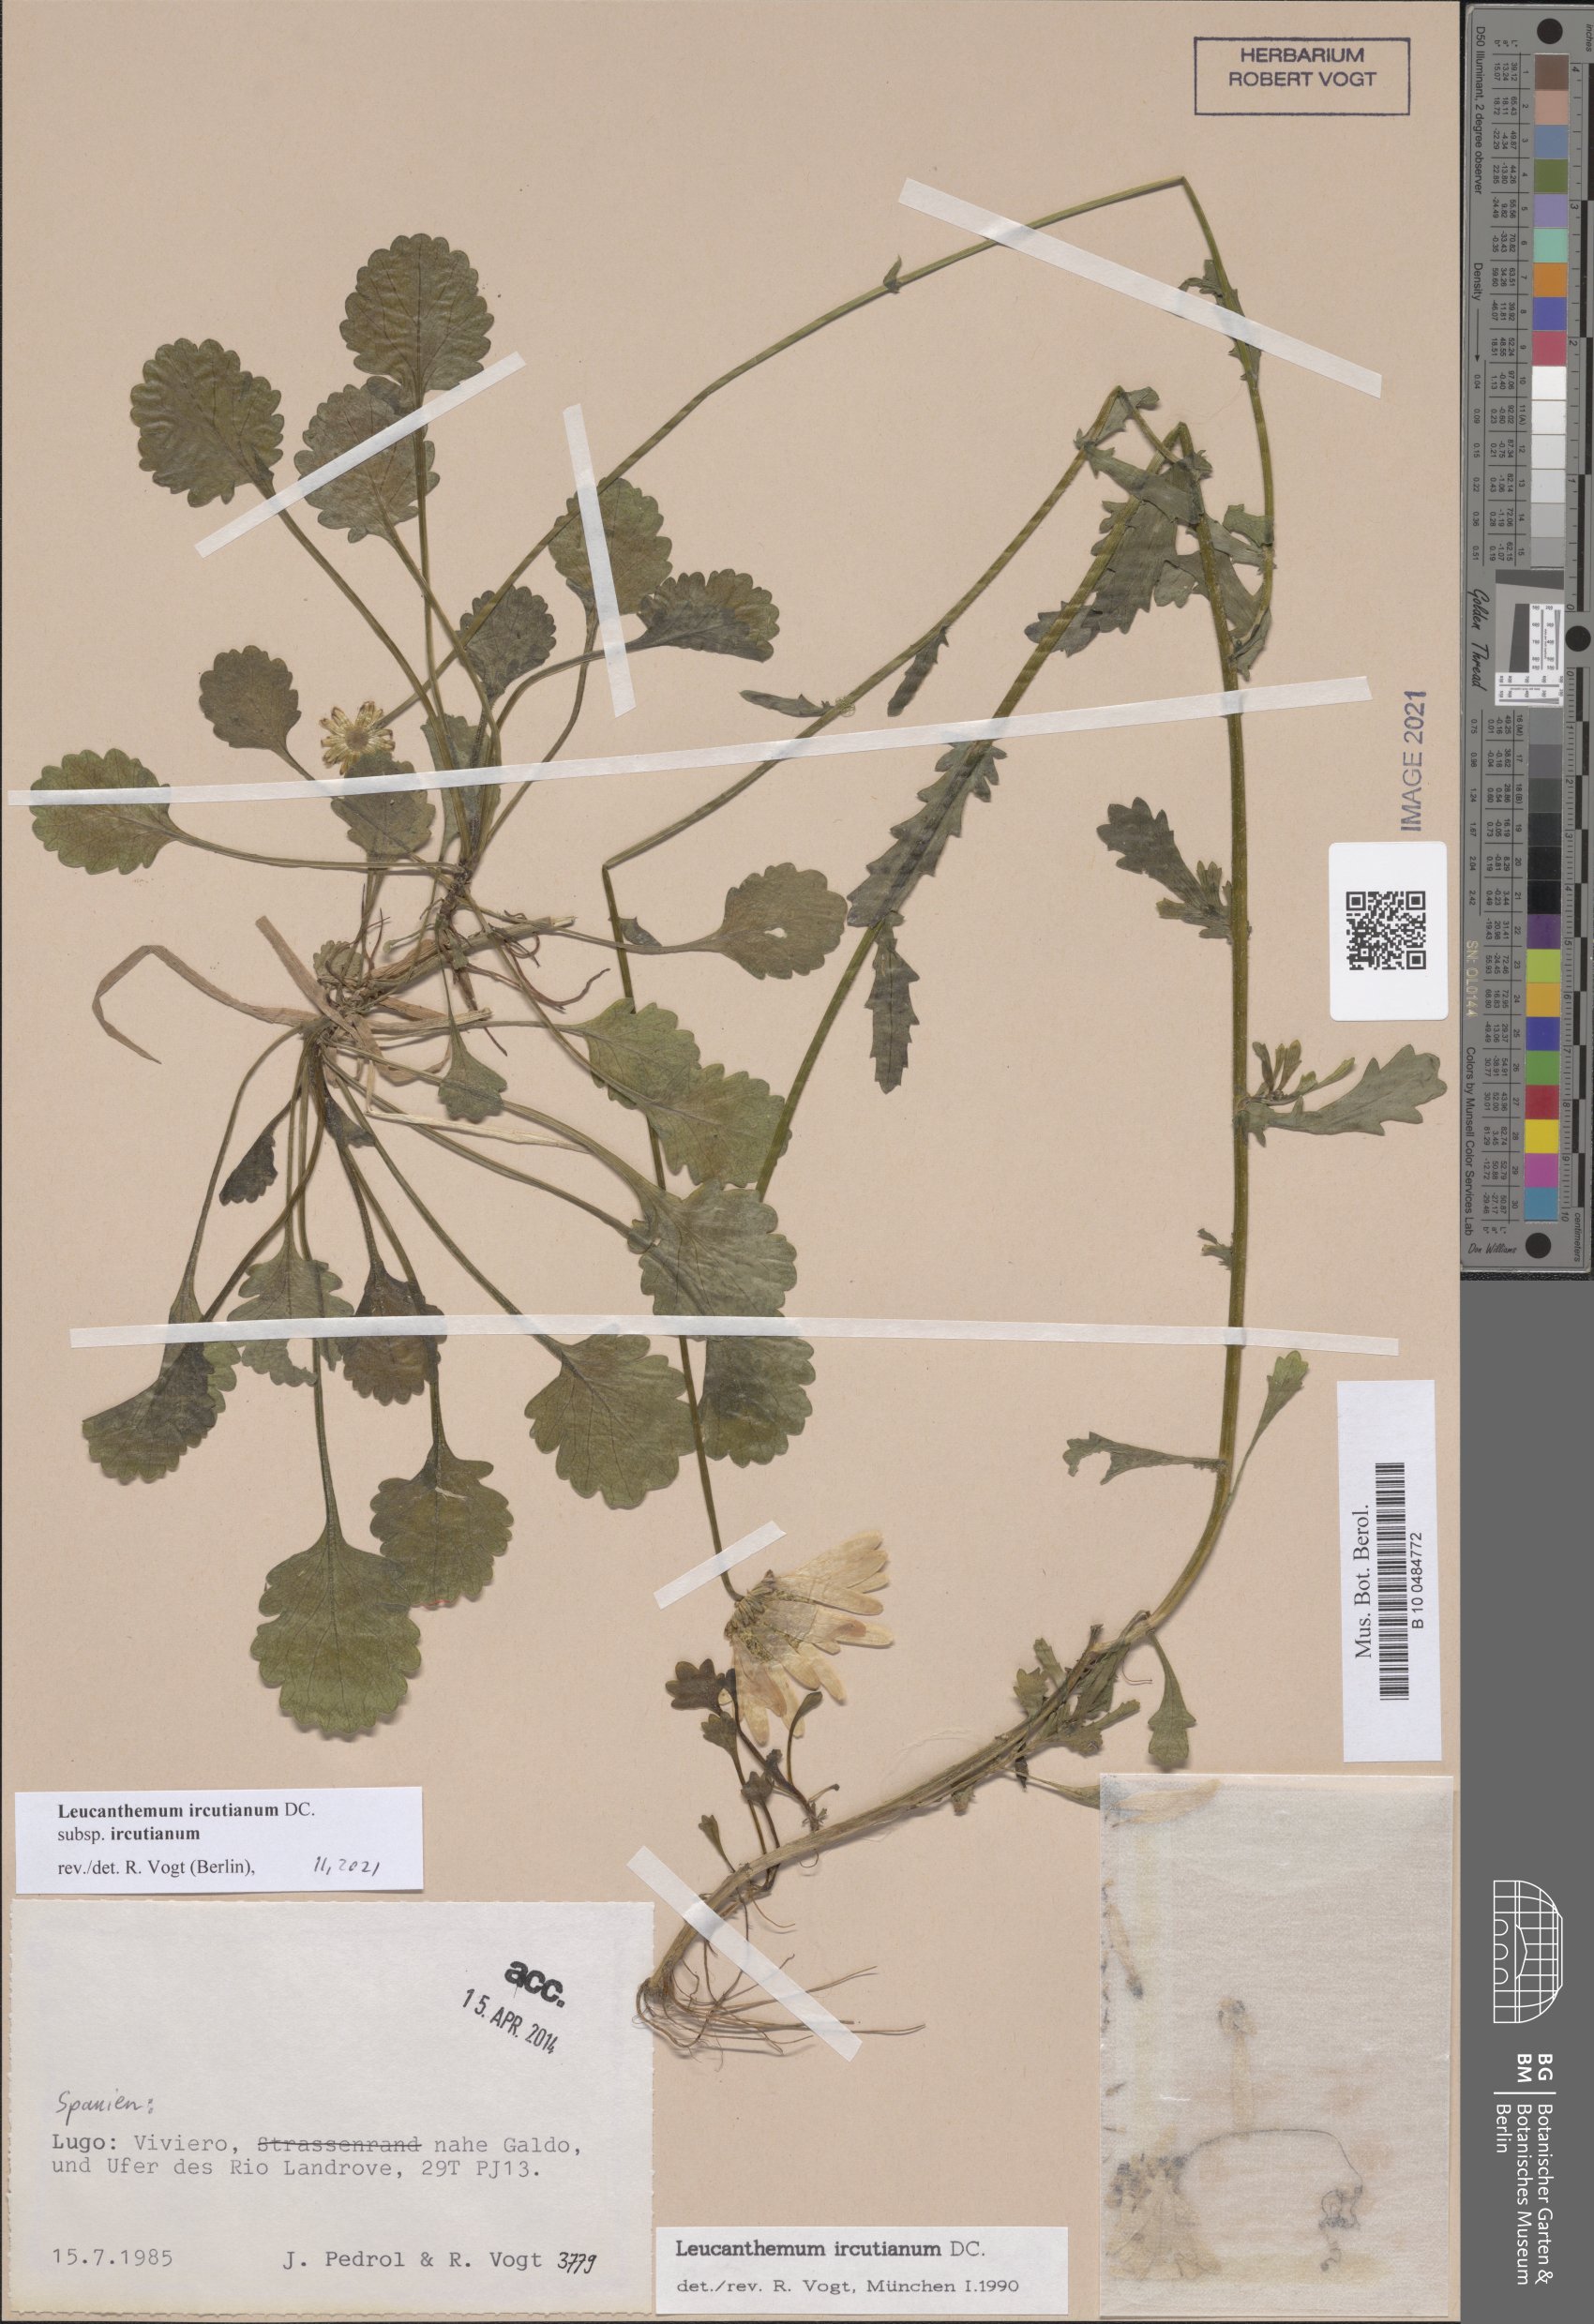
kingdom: Plantae
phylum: Tracheophyta
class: Magnoliopsida
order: Asterales
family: Asteraceae
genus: Leucanthemum
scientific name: Leucanthemum ircutianum
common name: Daisy
